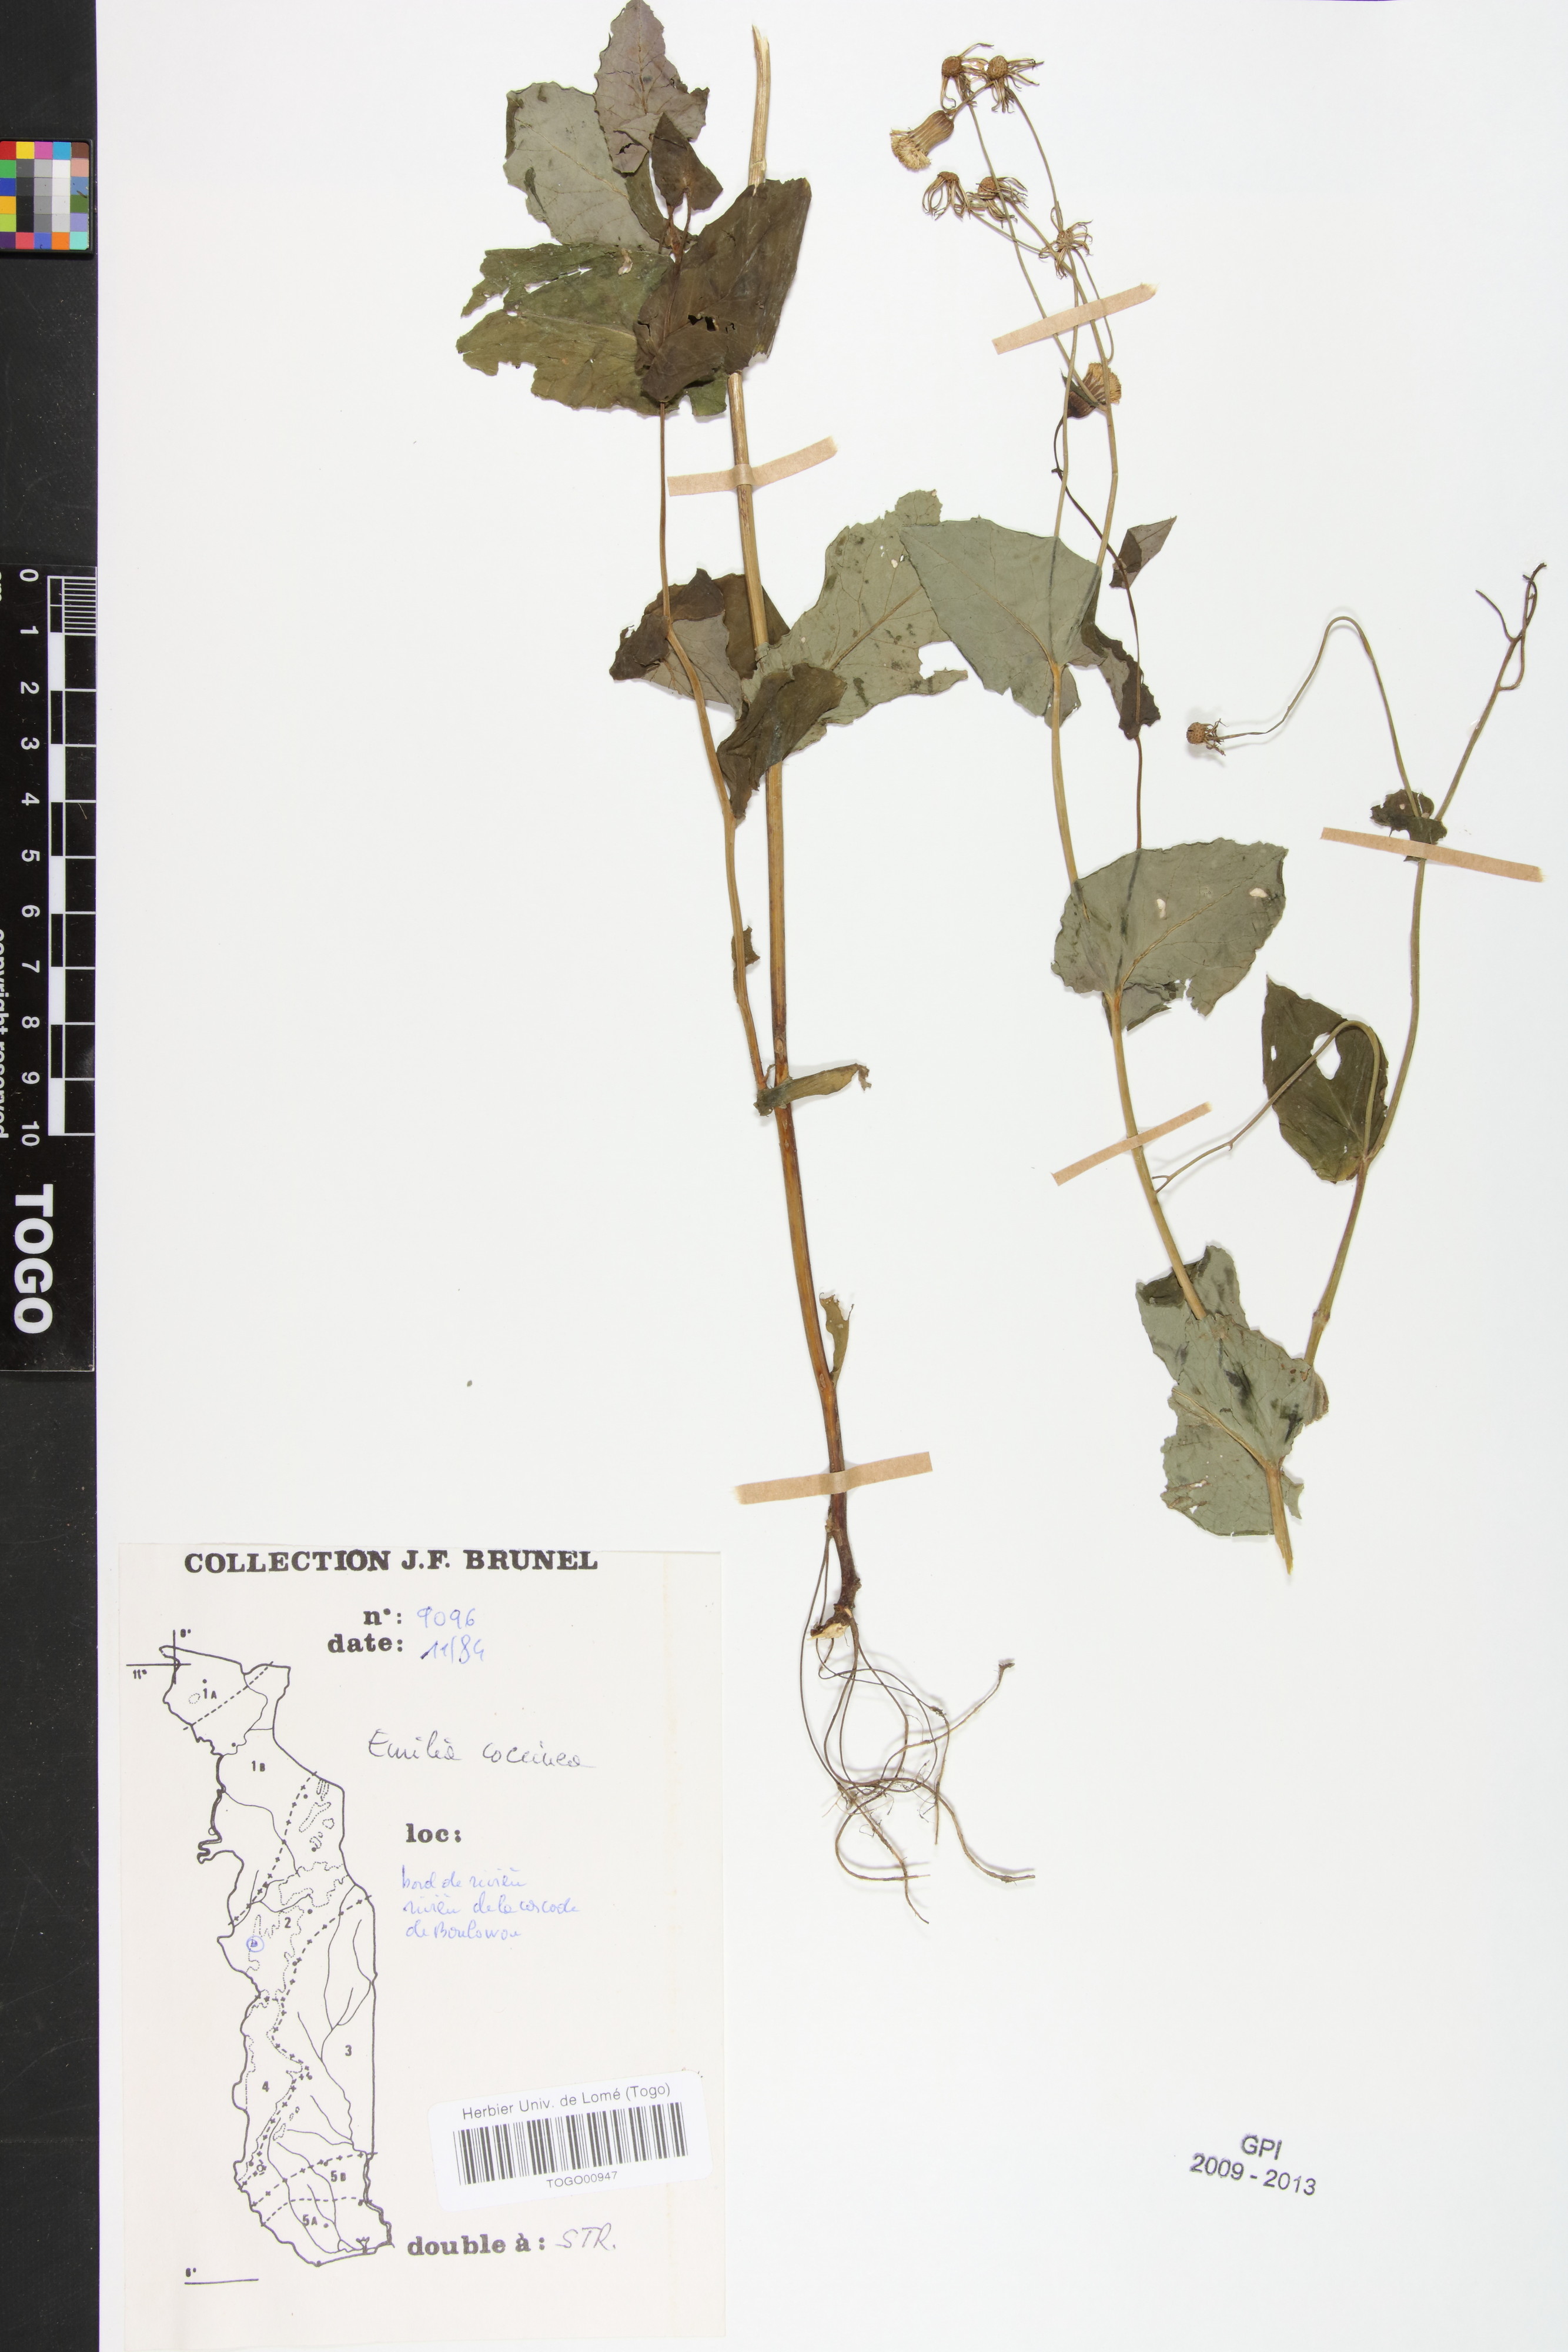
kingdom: Plantae
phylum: Tracheophyta
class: Magnoliopsida
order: Asterales
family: Asteraceae
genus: Emilia
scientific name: Emilia coccinea
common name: Scarlet tasselflower
